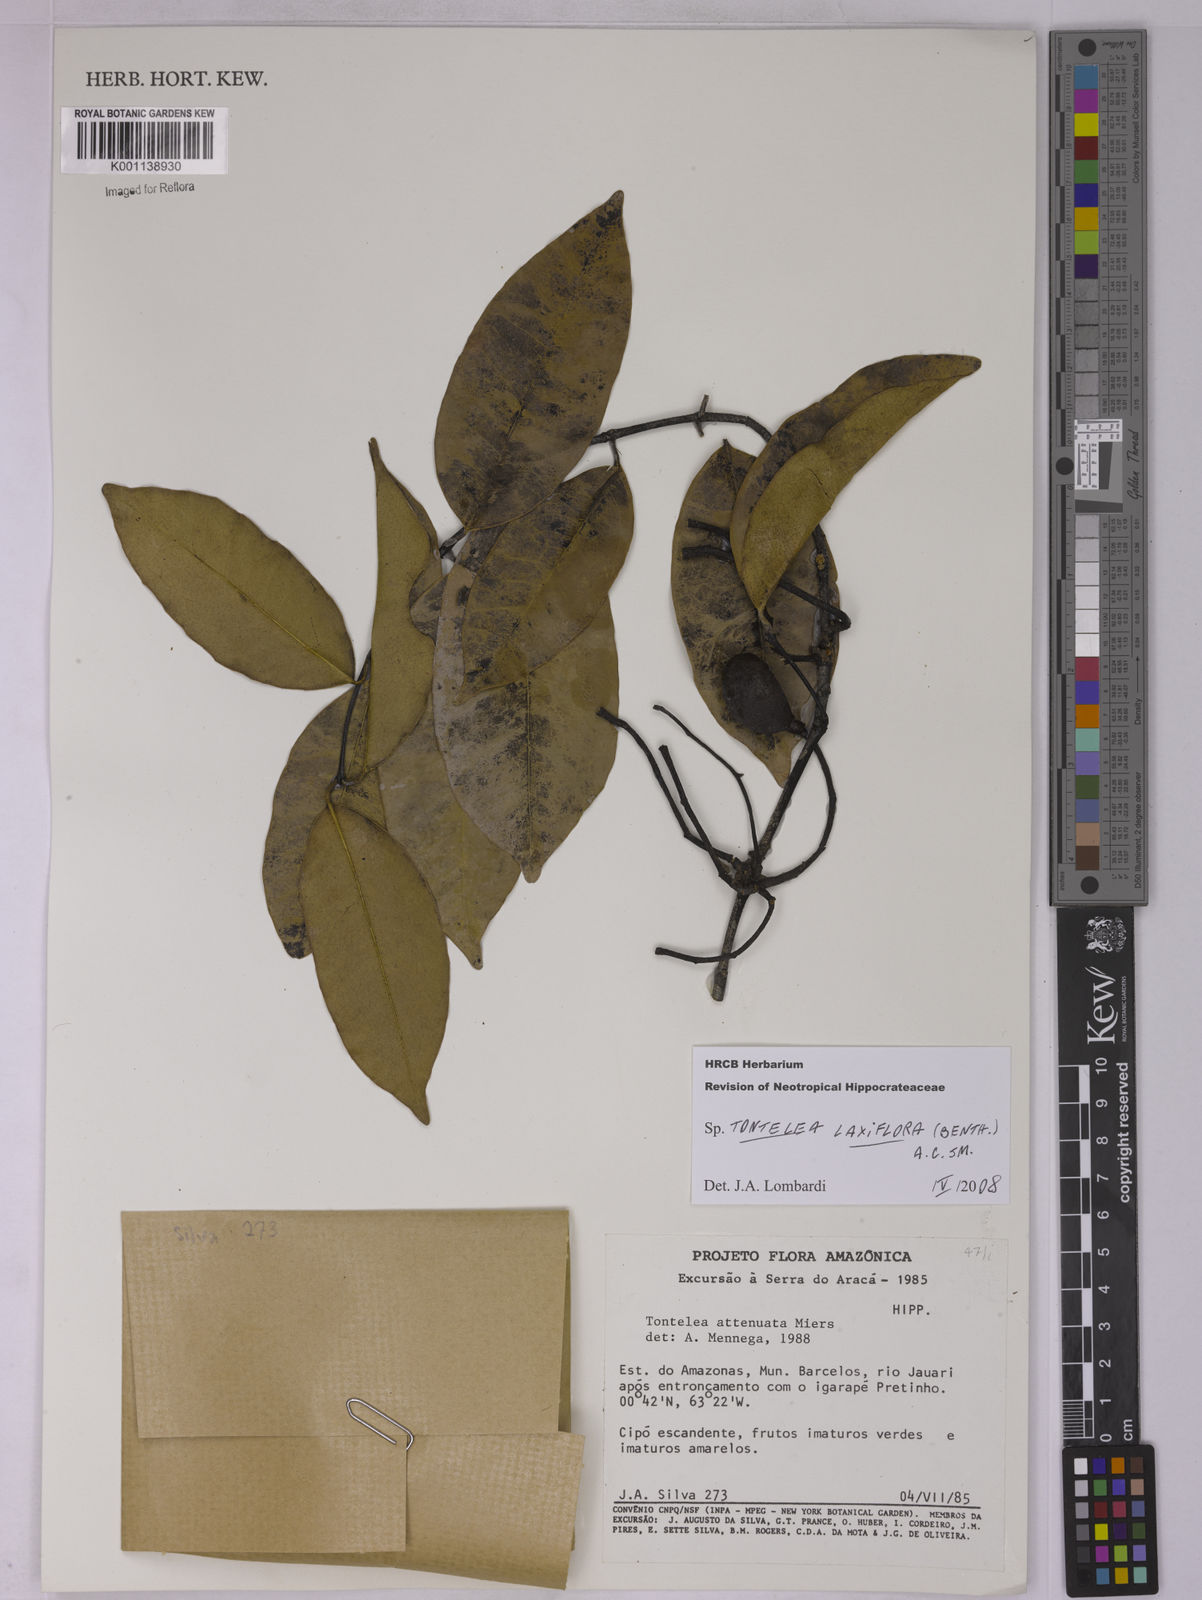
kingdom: Plantae
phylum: Tracheophyta
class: Magnoliopsida
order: Celastrales
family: Celastraceae
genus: Tontelea
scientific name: Tontelea laxiflora
